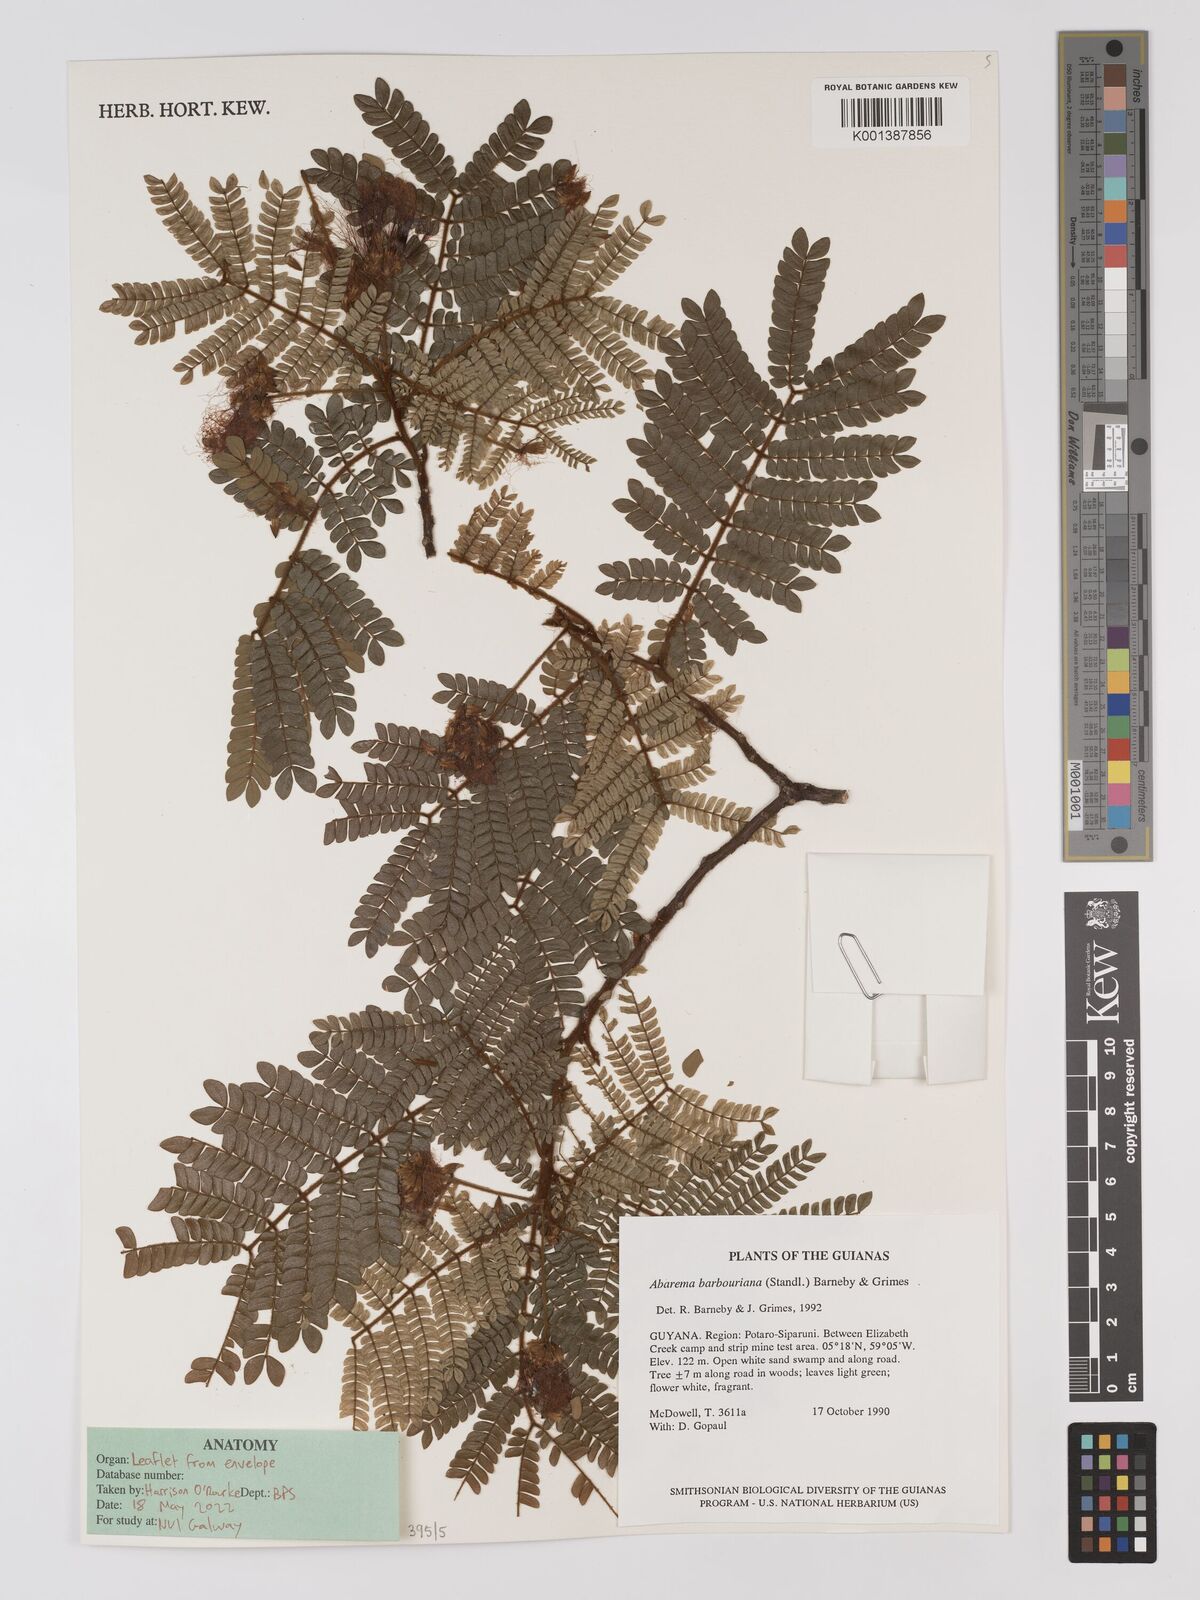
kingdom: Plantae
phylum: Tracheophyta
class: Magnoliopsida
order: Fabales
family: Fabaceae
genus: Jupunba
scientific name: Jupunba barbouriana
